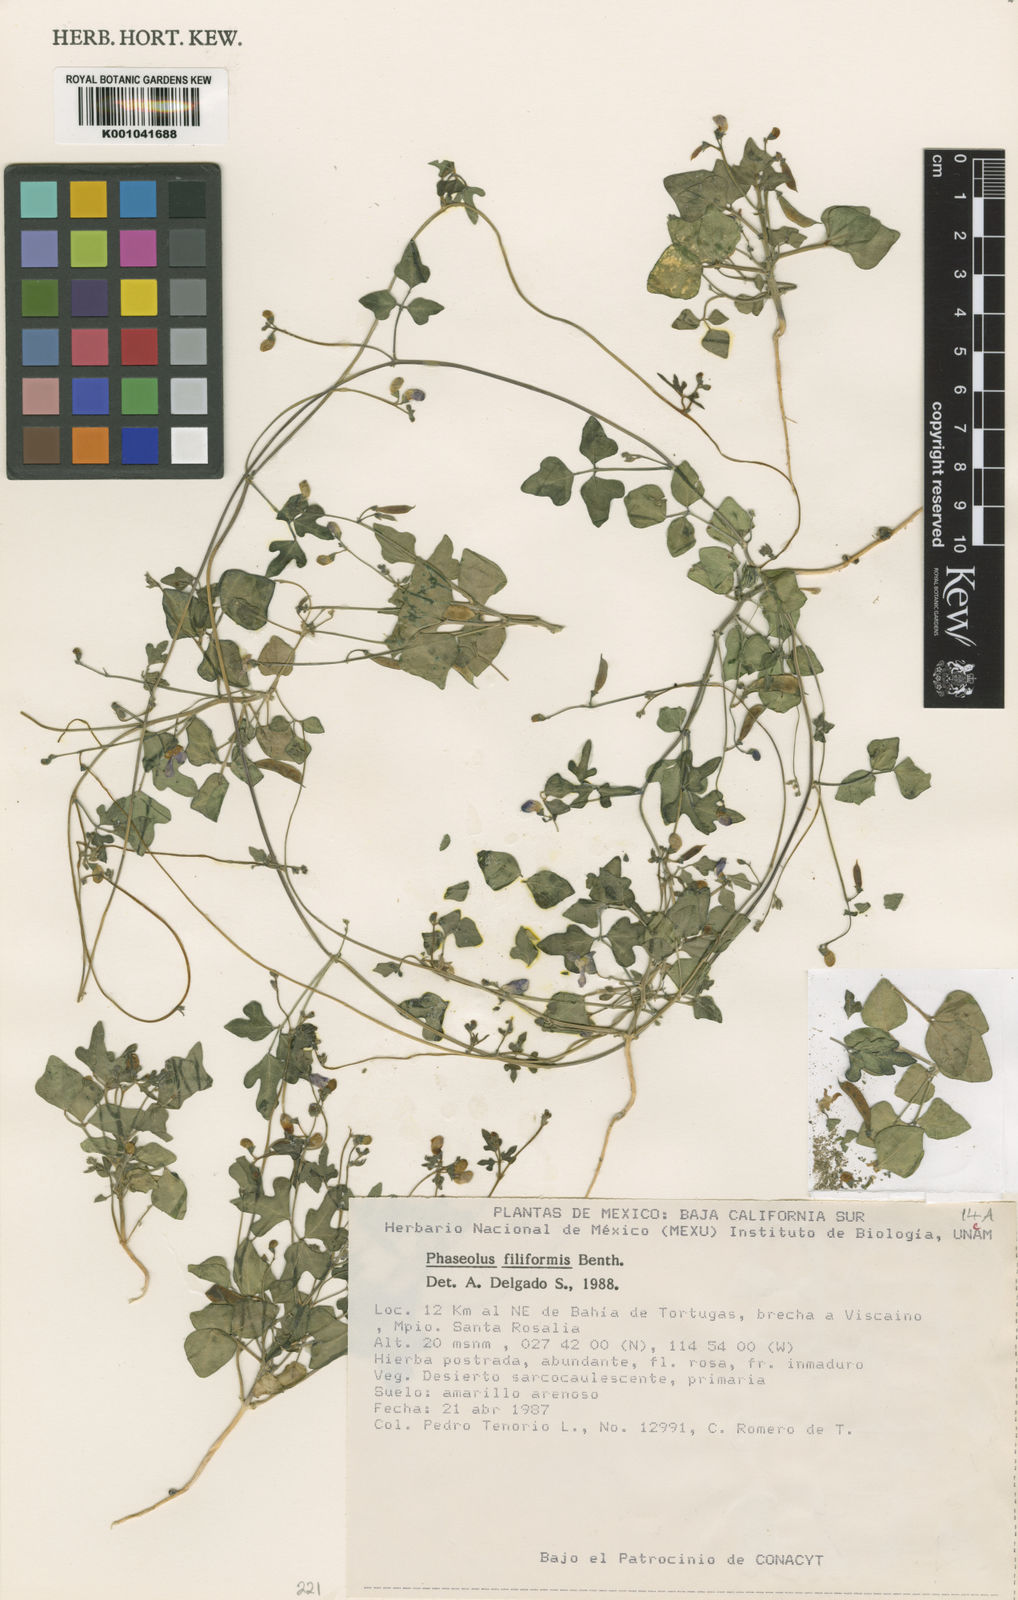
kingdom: Plantae
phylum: Tracheophyta
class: Magnoliopsida
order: Fabales
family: Fabaceae
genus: Phaseolus
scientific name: Phaseolus filiformis
